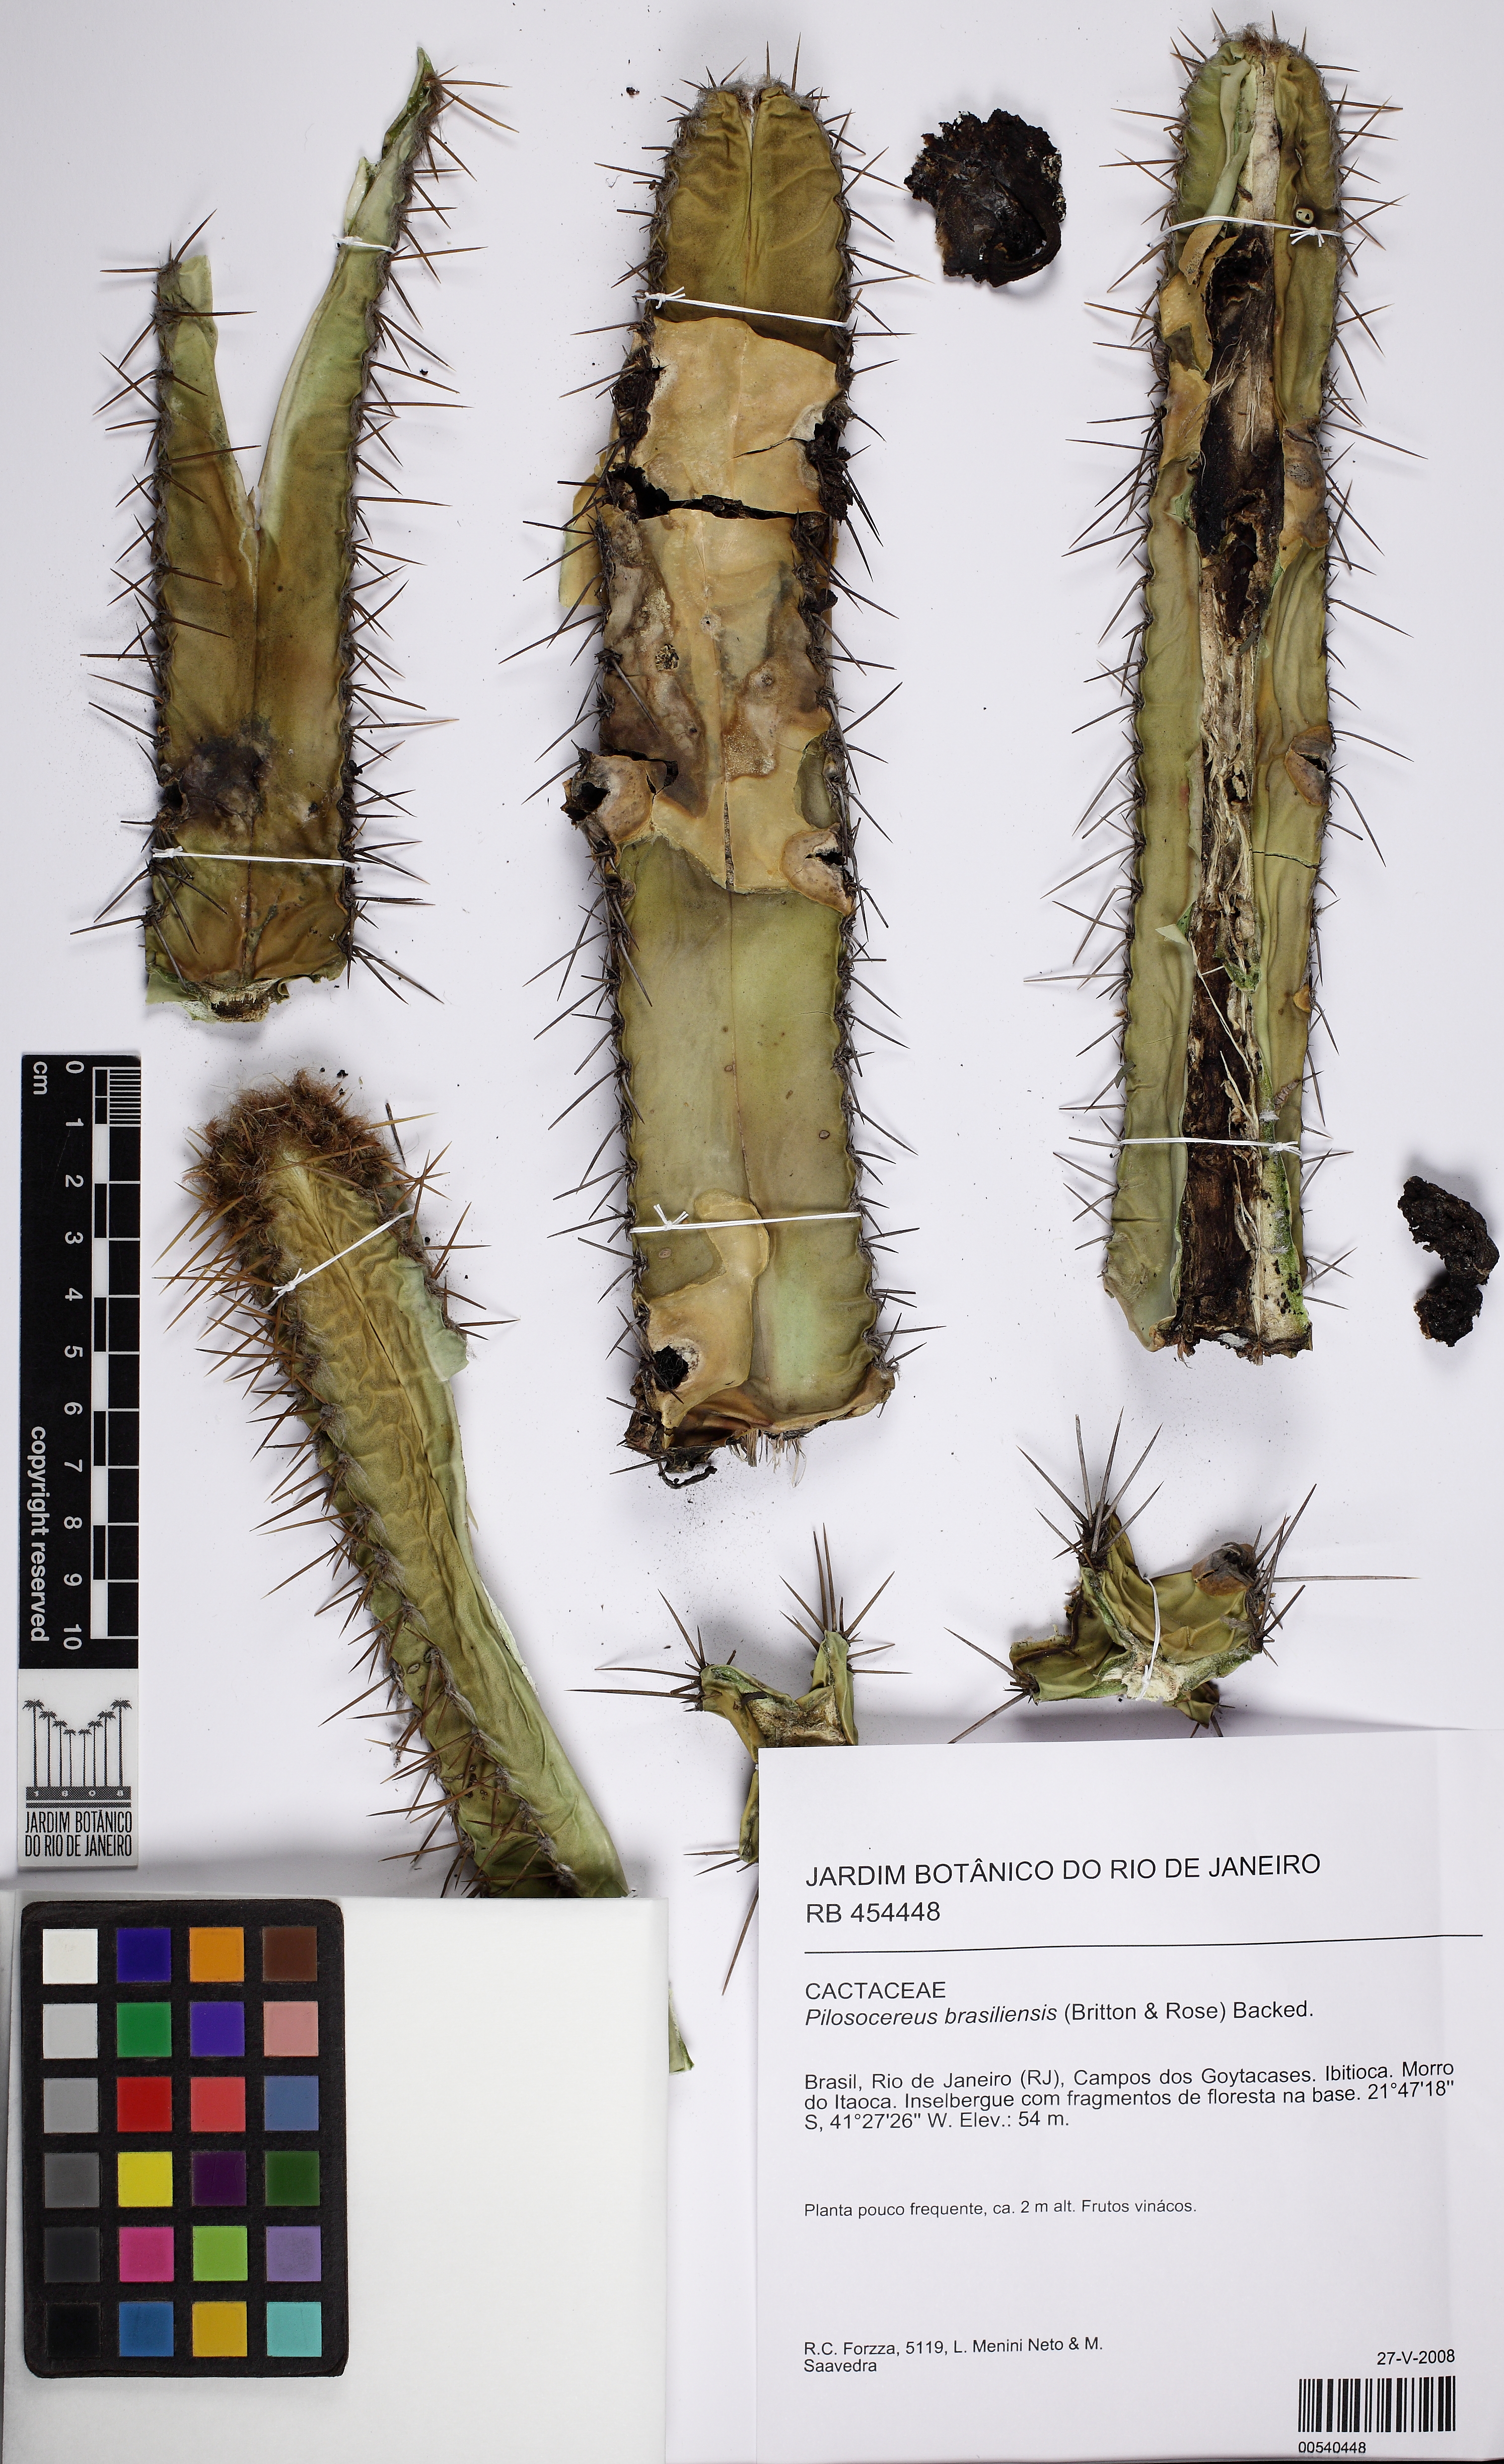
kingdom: Plantae
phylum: Tracheophyta
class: Magnoliopsida
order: Caryophyllales
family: Cactaceae
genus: Pilosocereus
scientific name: Pilosocereus brasiliensis
